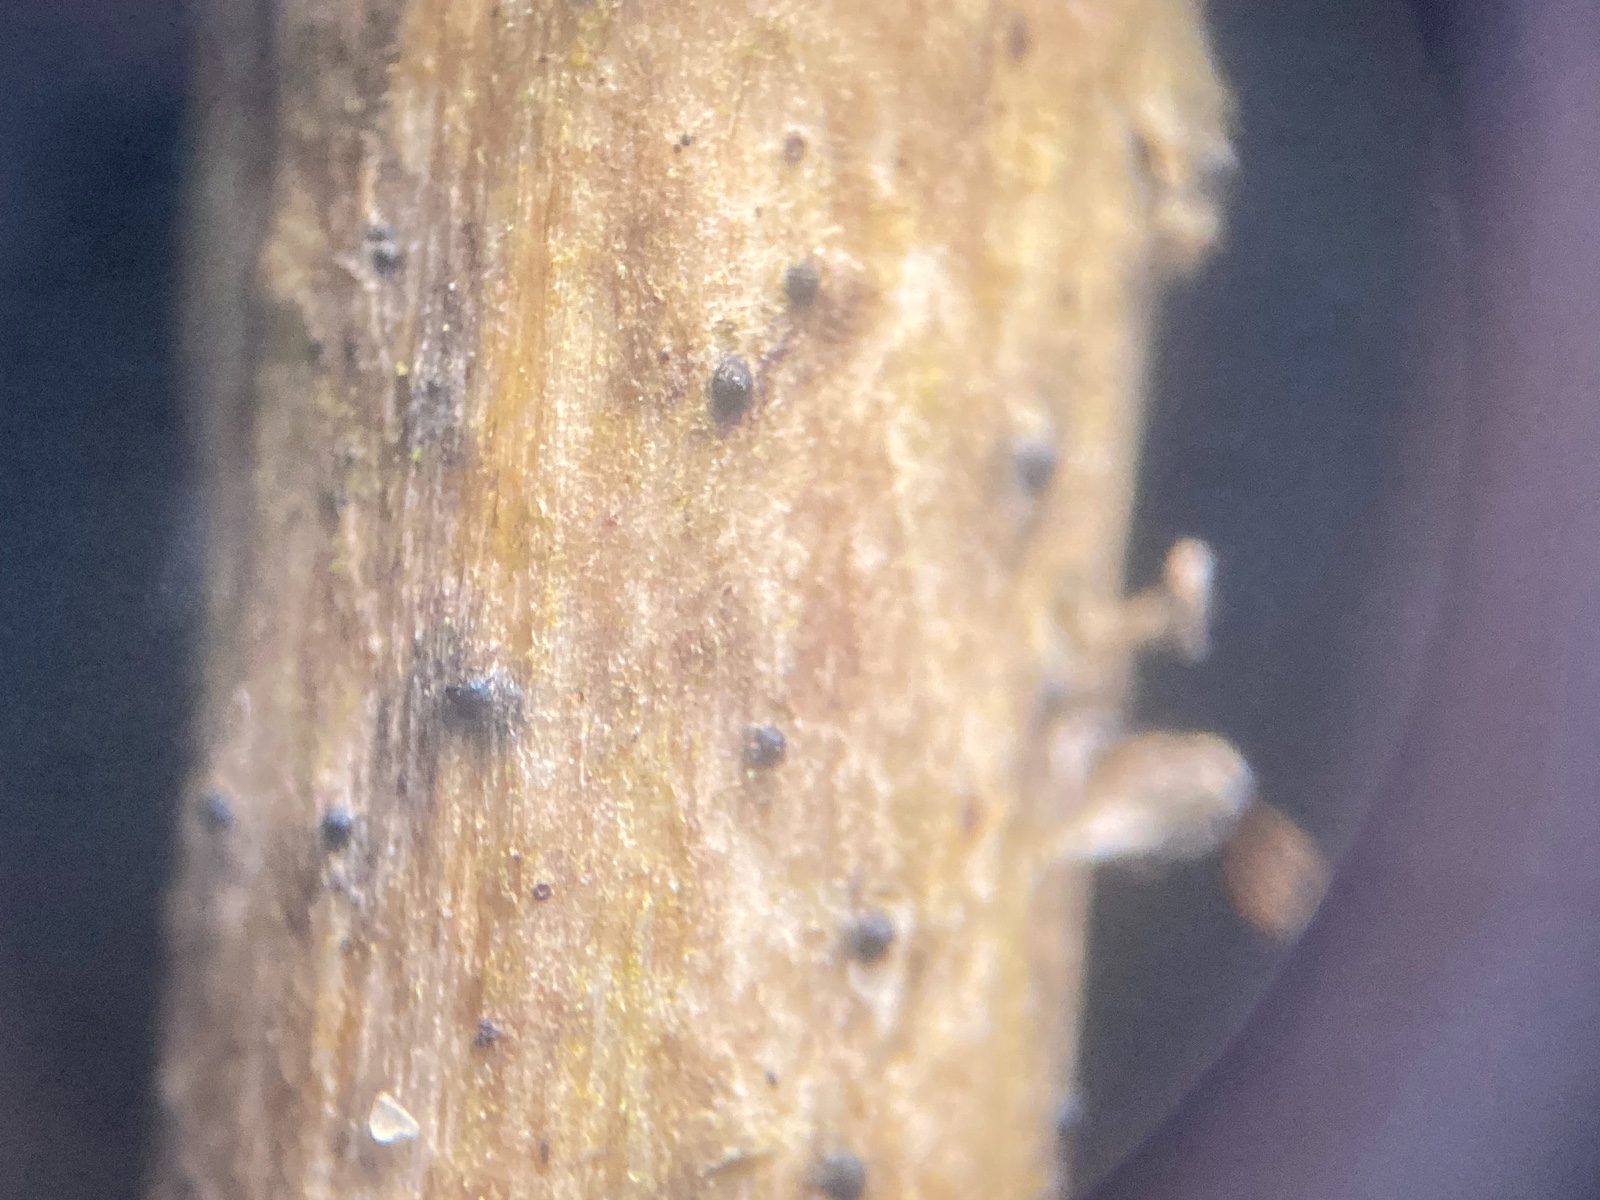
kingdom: Fungi
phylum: Ascomycota
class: Sordariomycetes
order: Xylariales
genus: Melomastia
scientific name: Melomastia mastoidea
